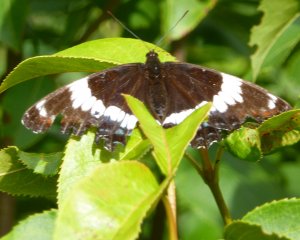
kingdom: Animalia
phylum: Arthropoda
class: Insecta
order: Lepidoptera
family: Nymphalidae
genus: Limenitis
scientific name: Limenitis arthemis
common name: Red-spotted Admiral
